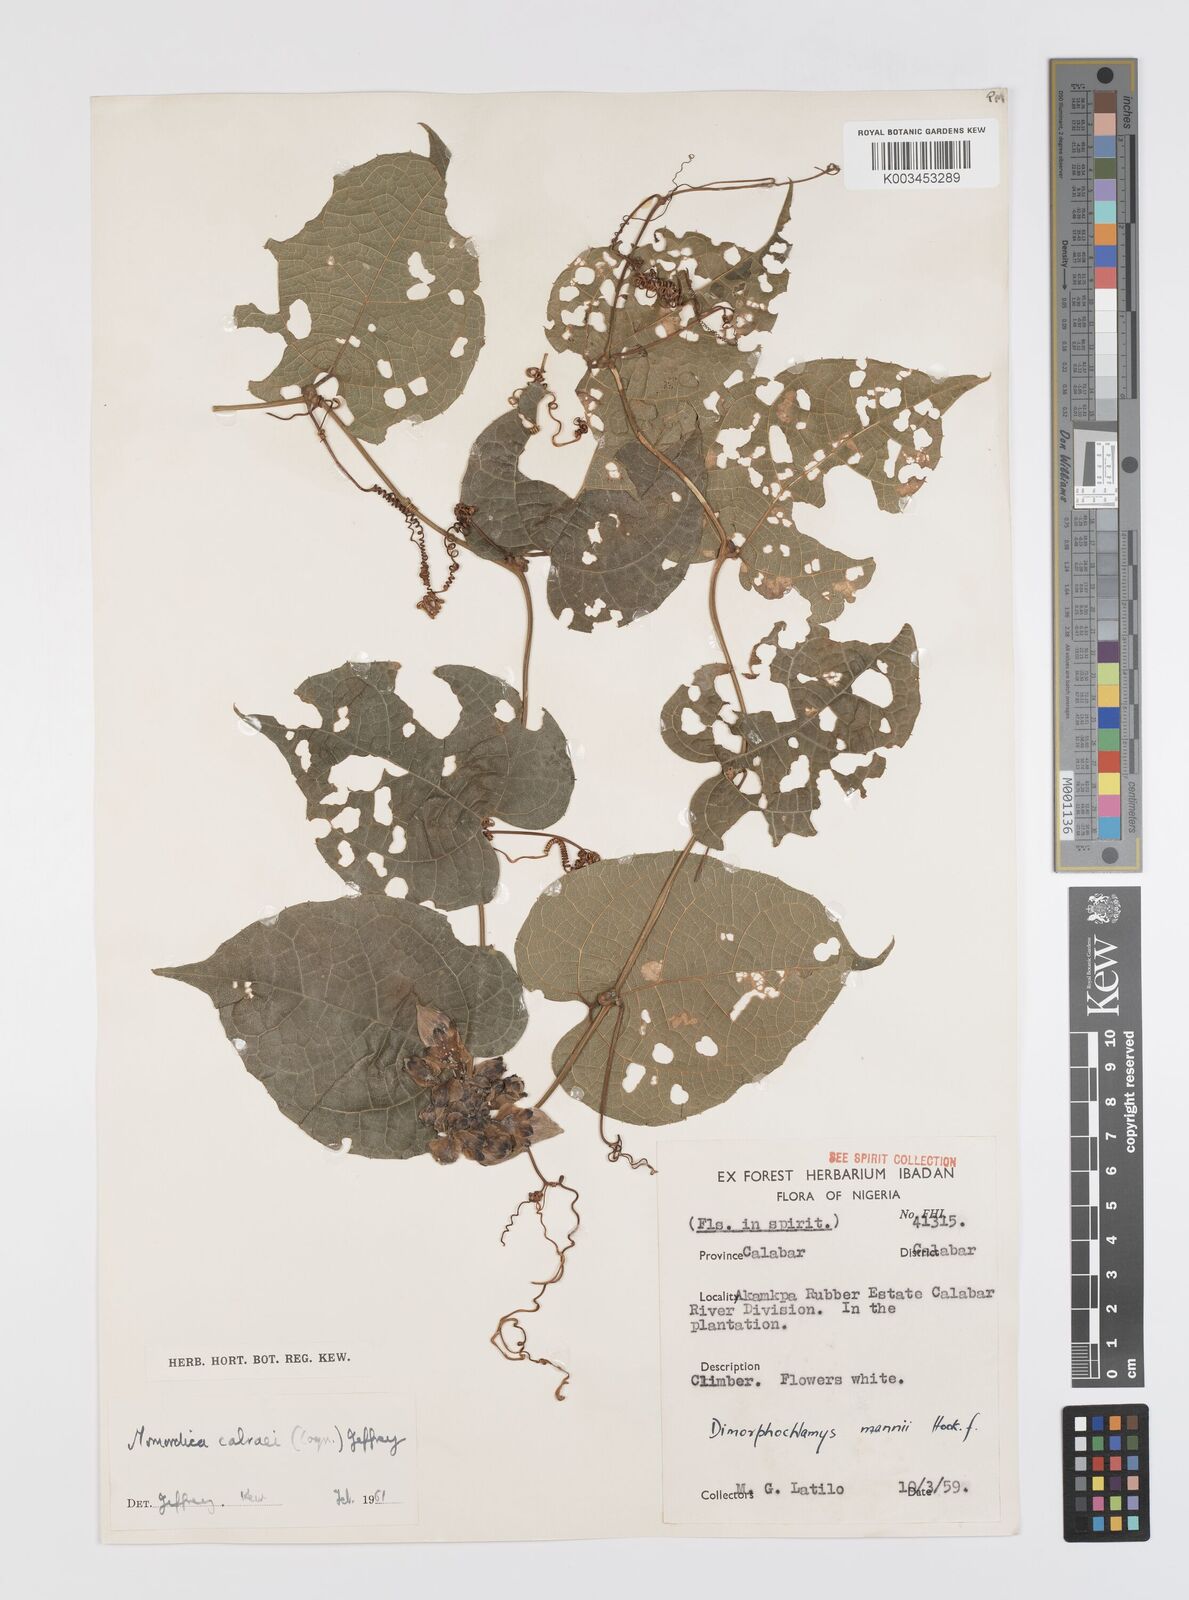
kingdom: Plantae
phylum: Tracheophyta
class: Magnoliopsida
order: Cucurbitales
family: Cucurbitaceae
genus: Momordica
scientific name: Momordica cabrae
